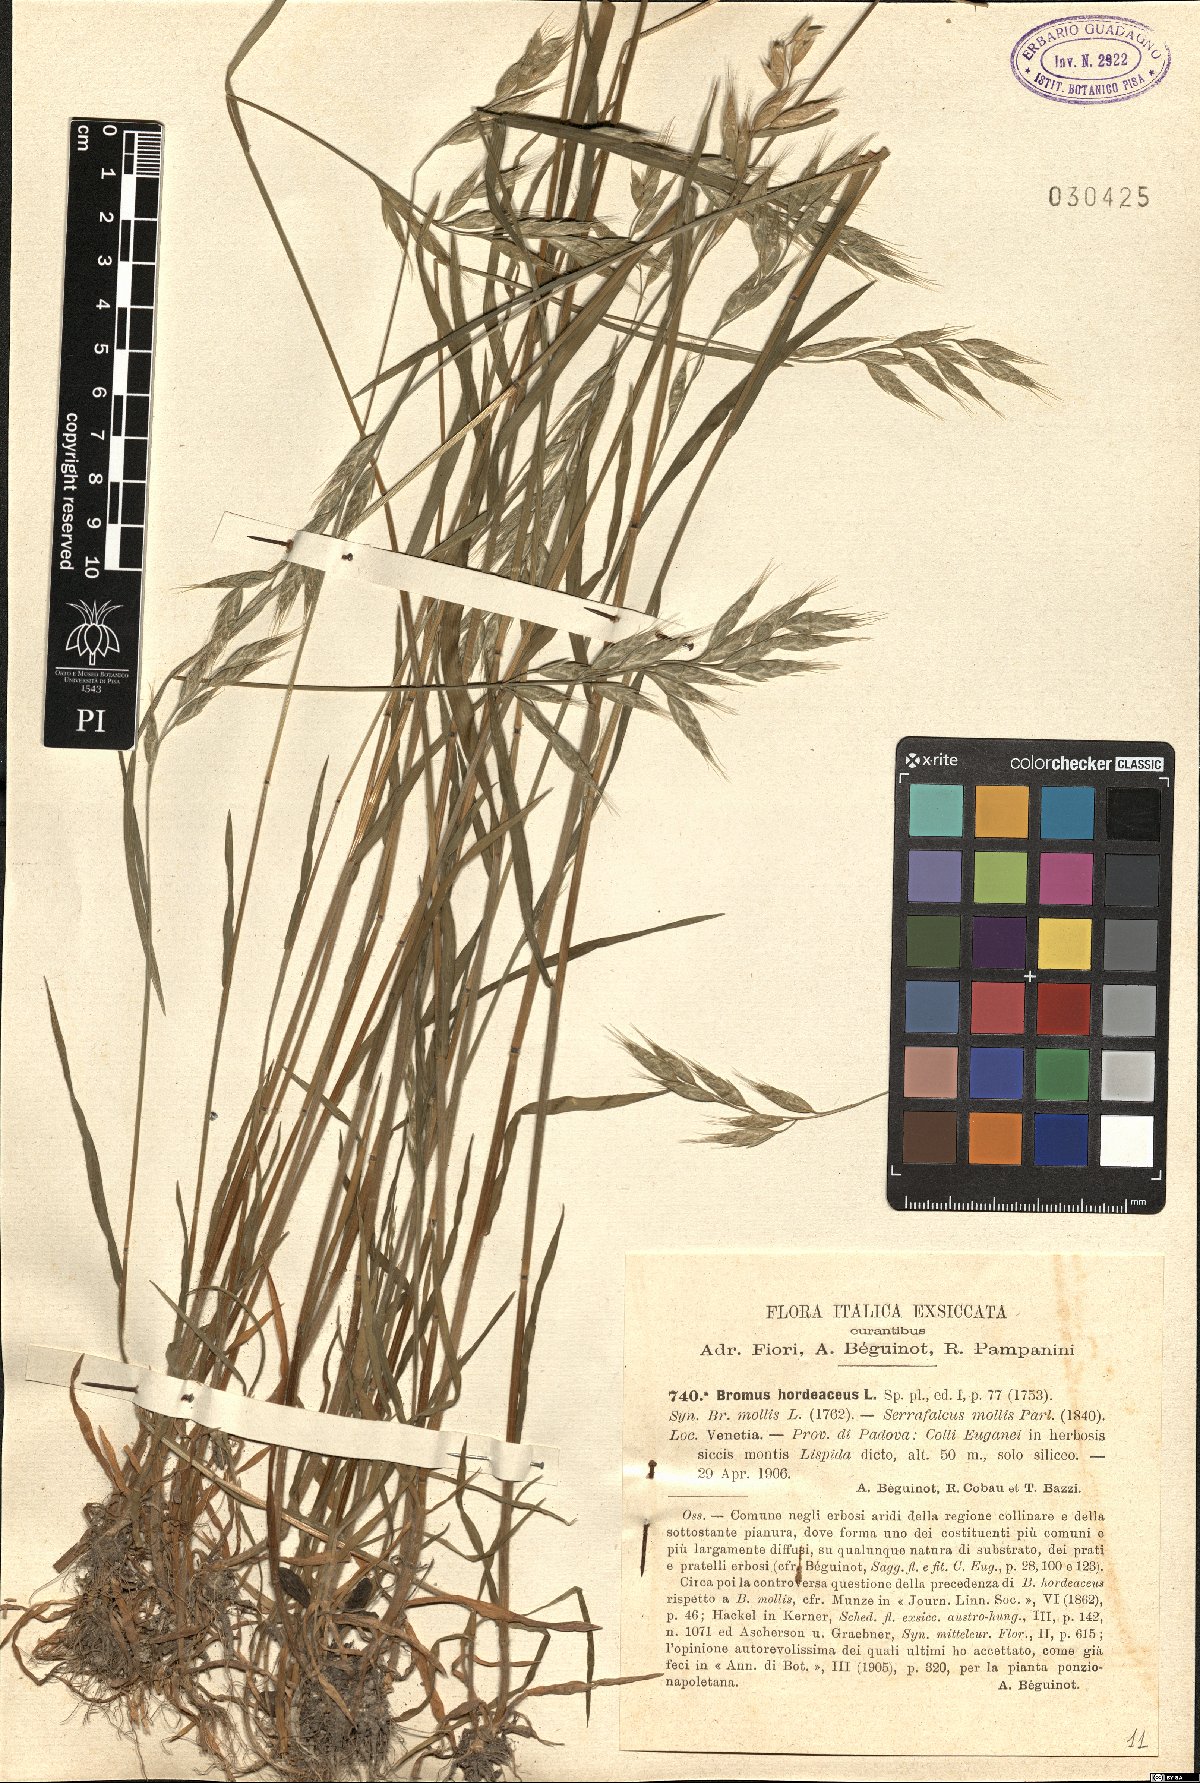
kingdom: Plantae
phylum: Tracheophyta
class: Liliopsida
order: Poales
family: Poaceae
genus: Bromus
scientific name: Bromus hordeaceus
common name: Soft brome
